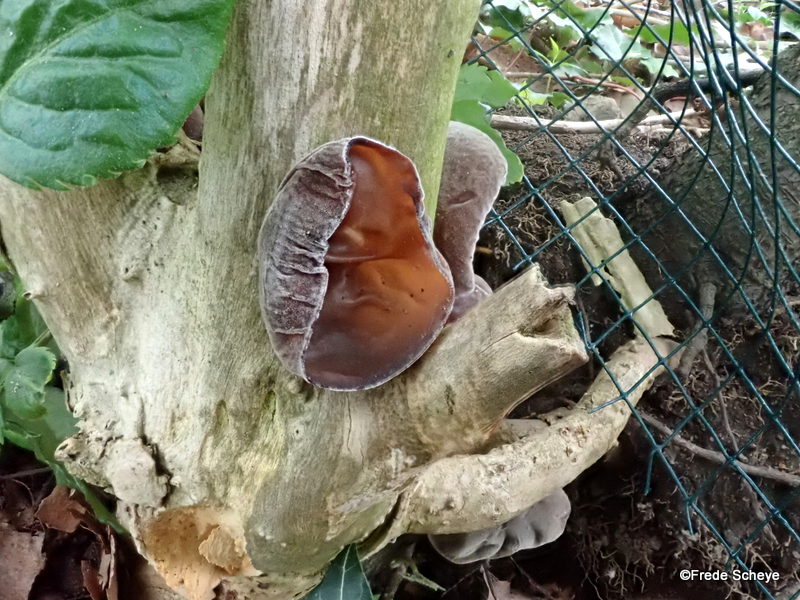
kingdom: Fungi
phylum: Basidiomycota
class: Agaricomycetes
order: Auriculariales
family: Auriculariaceae
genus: Auricularia
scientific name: Auricularia auricula-judae
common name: almindelig judasøre
